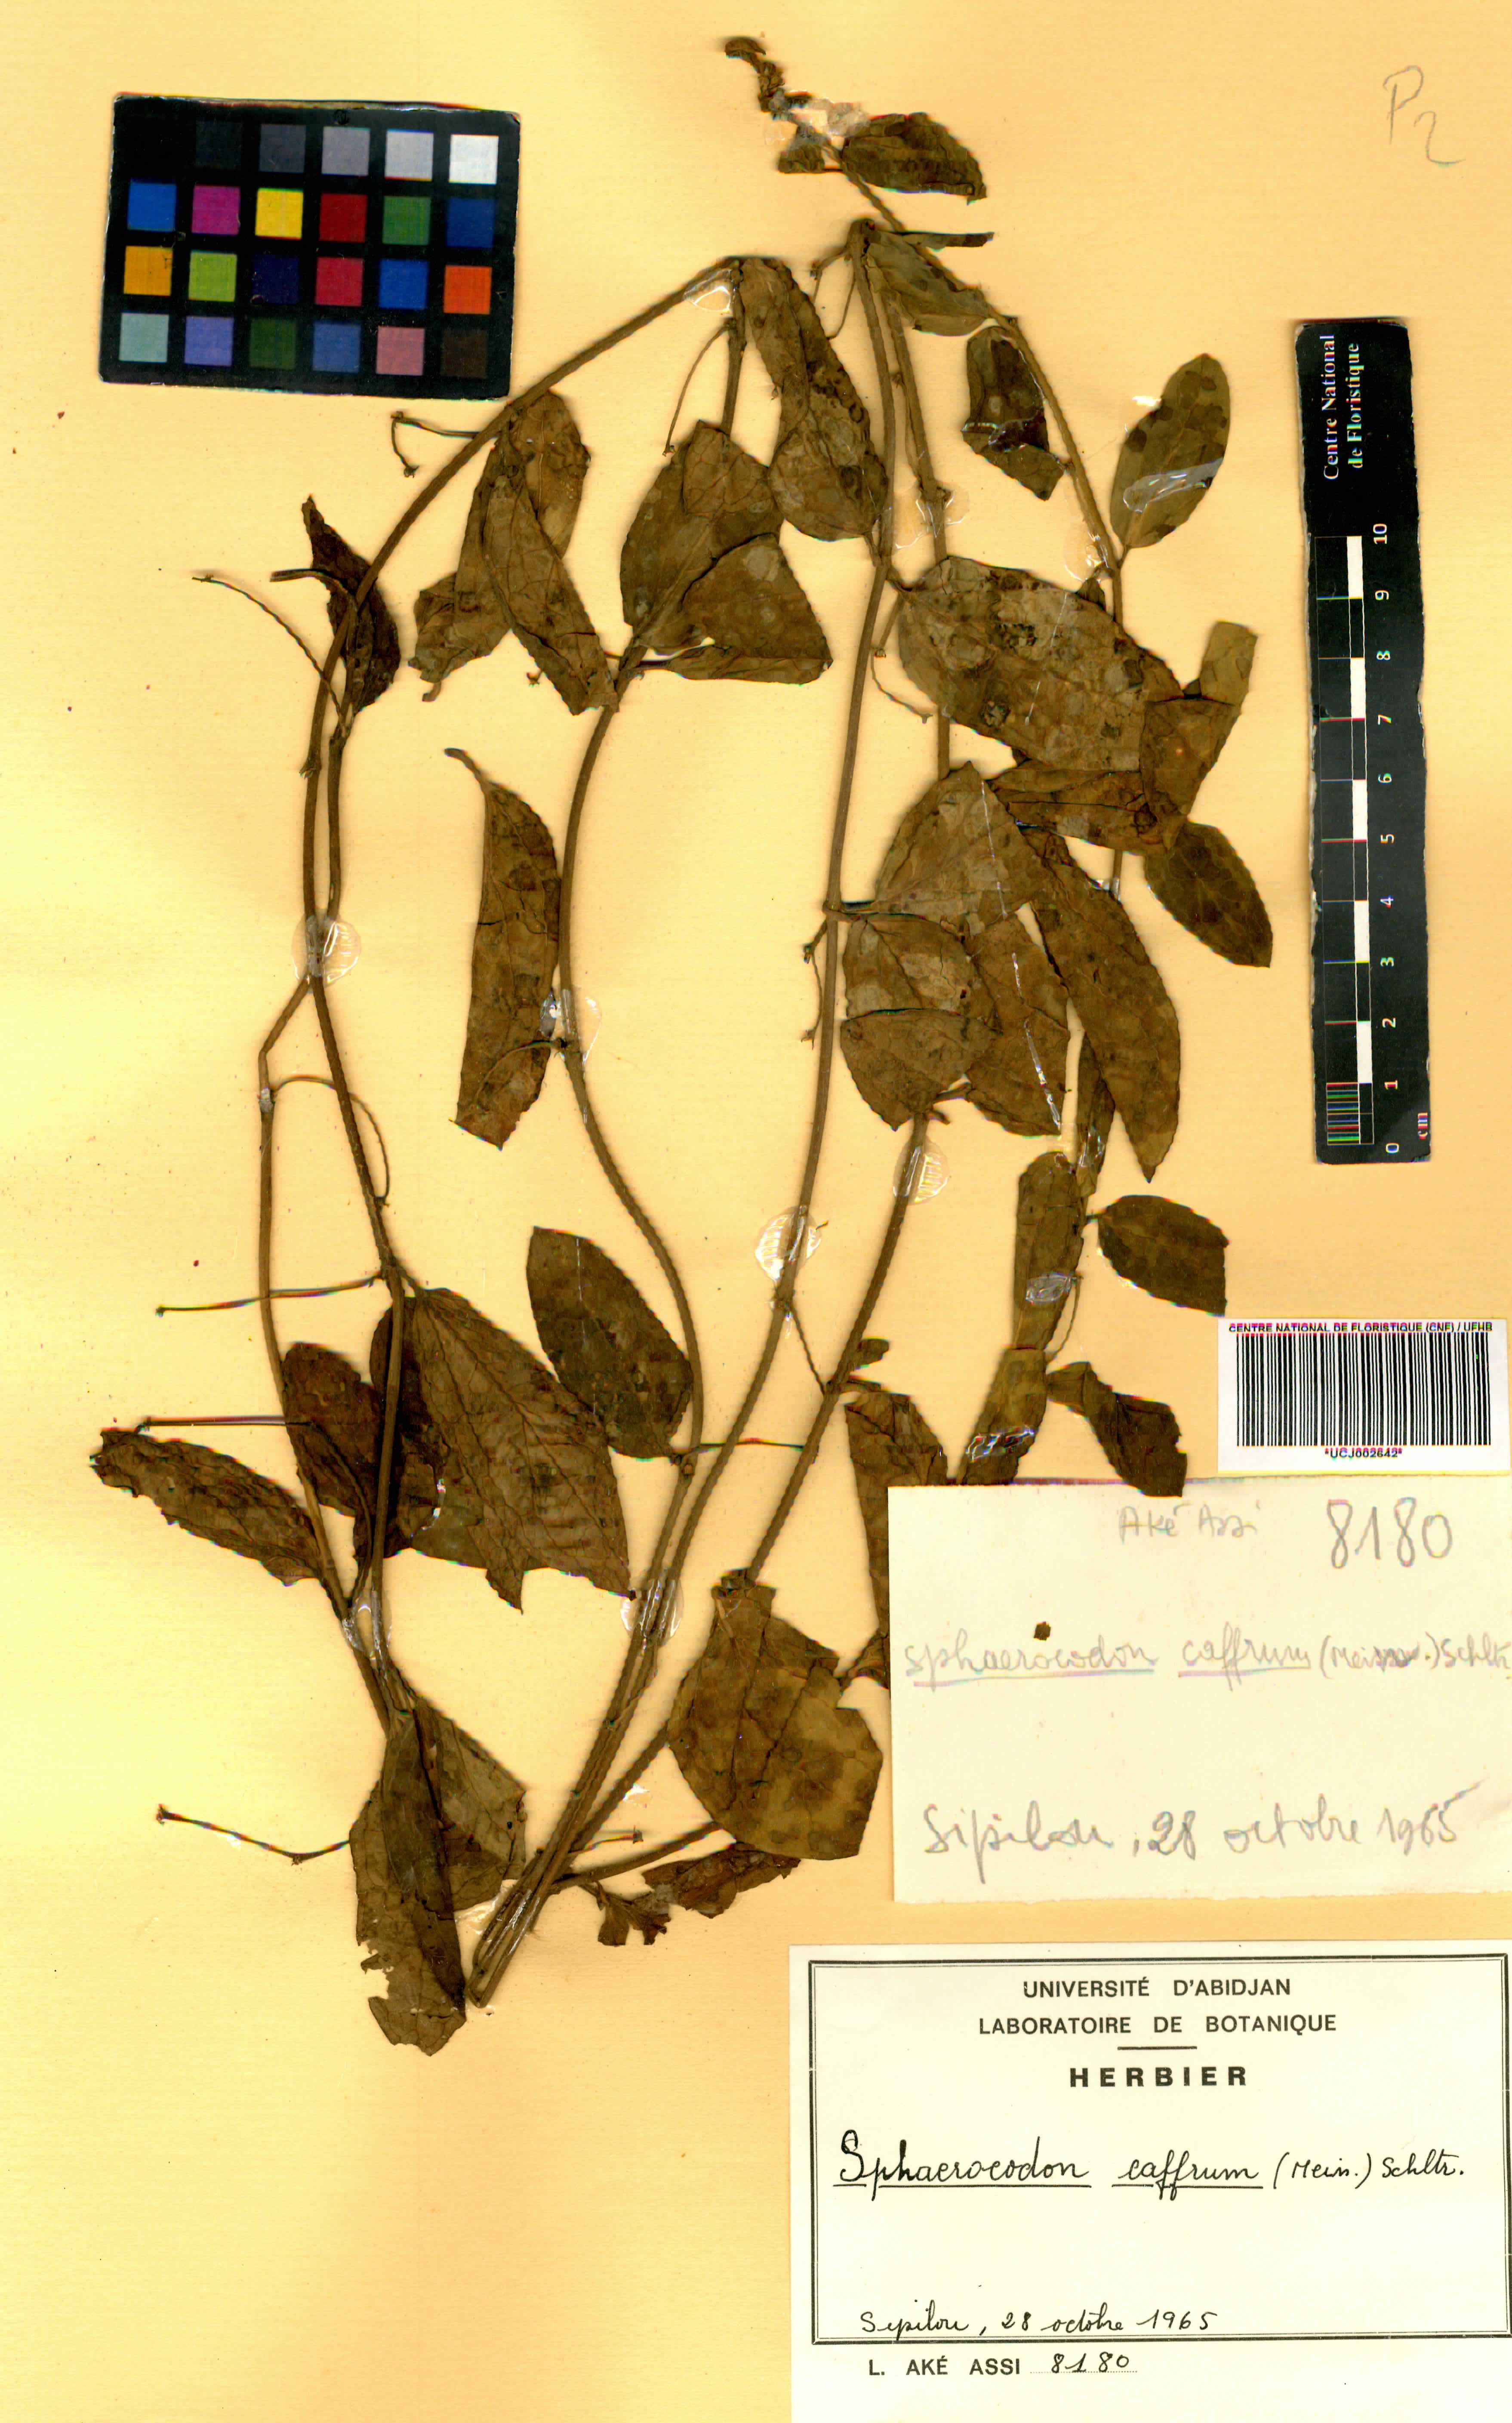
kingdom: Plantae
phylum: Tracheophyta
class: Magnoliopsida
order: Gentianales
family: Apocynaceae
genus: Vincetoxicum
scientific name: Vincetoxicum caffrum
